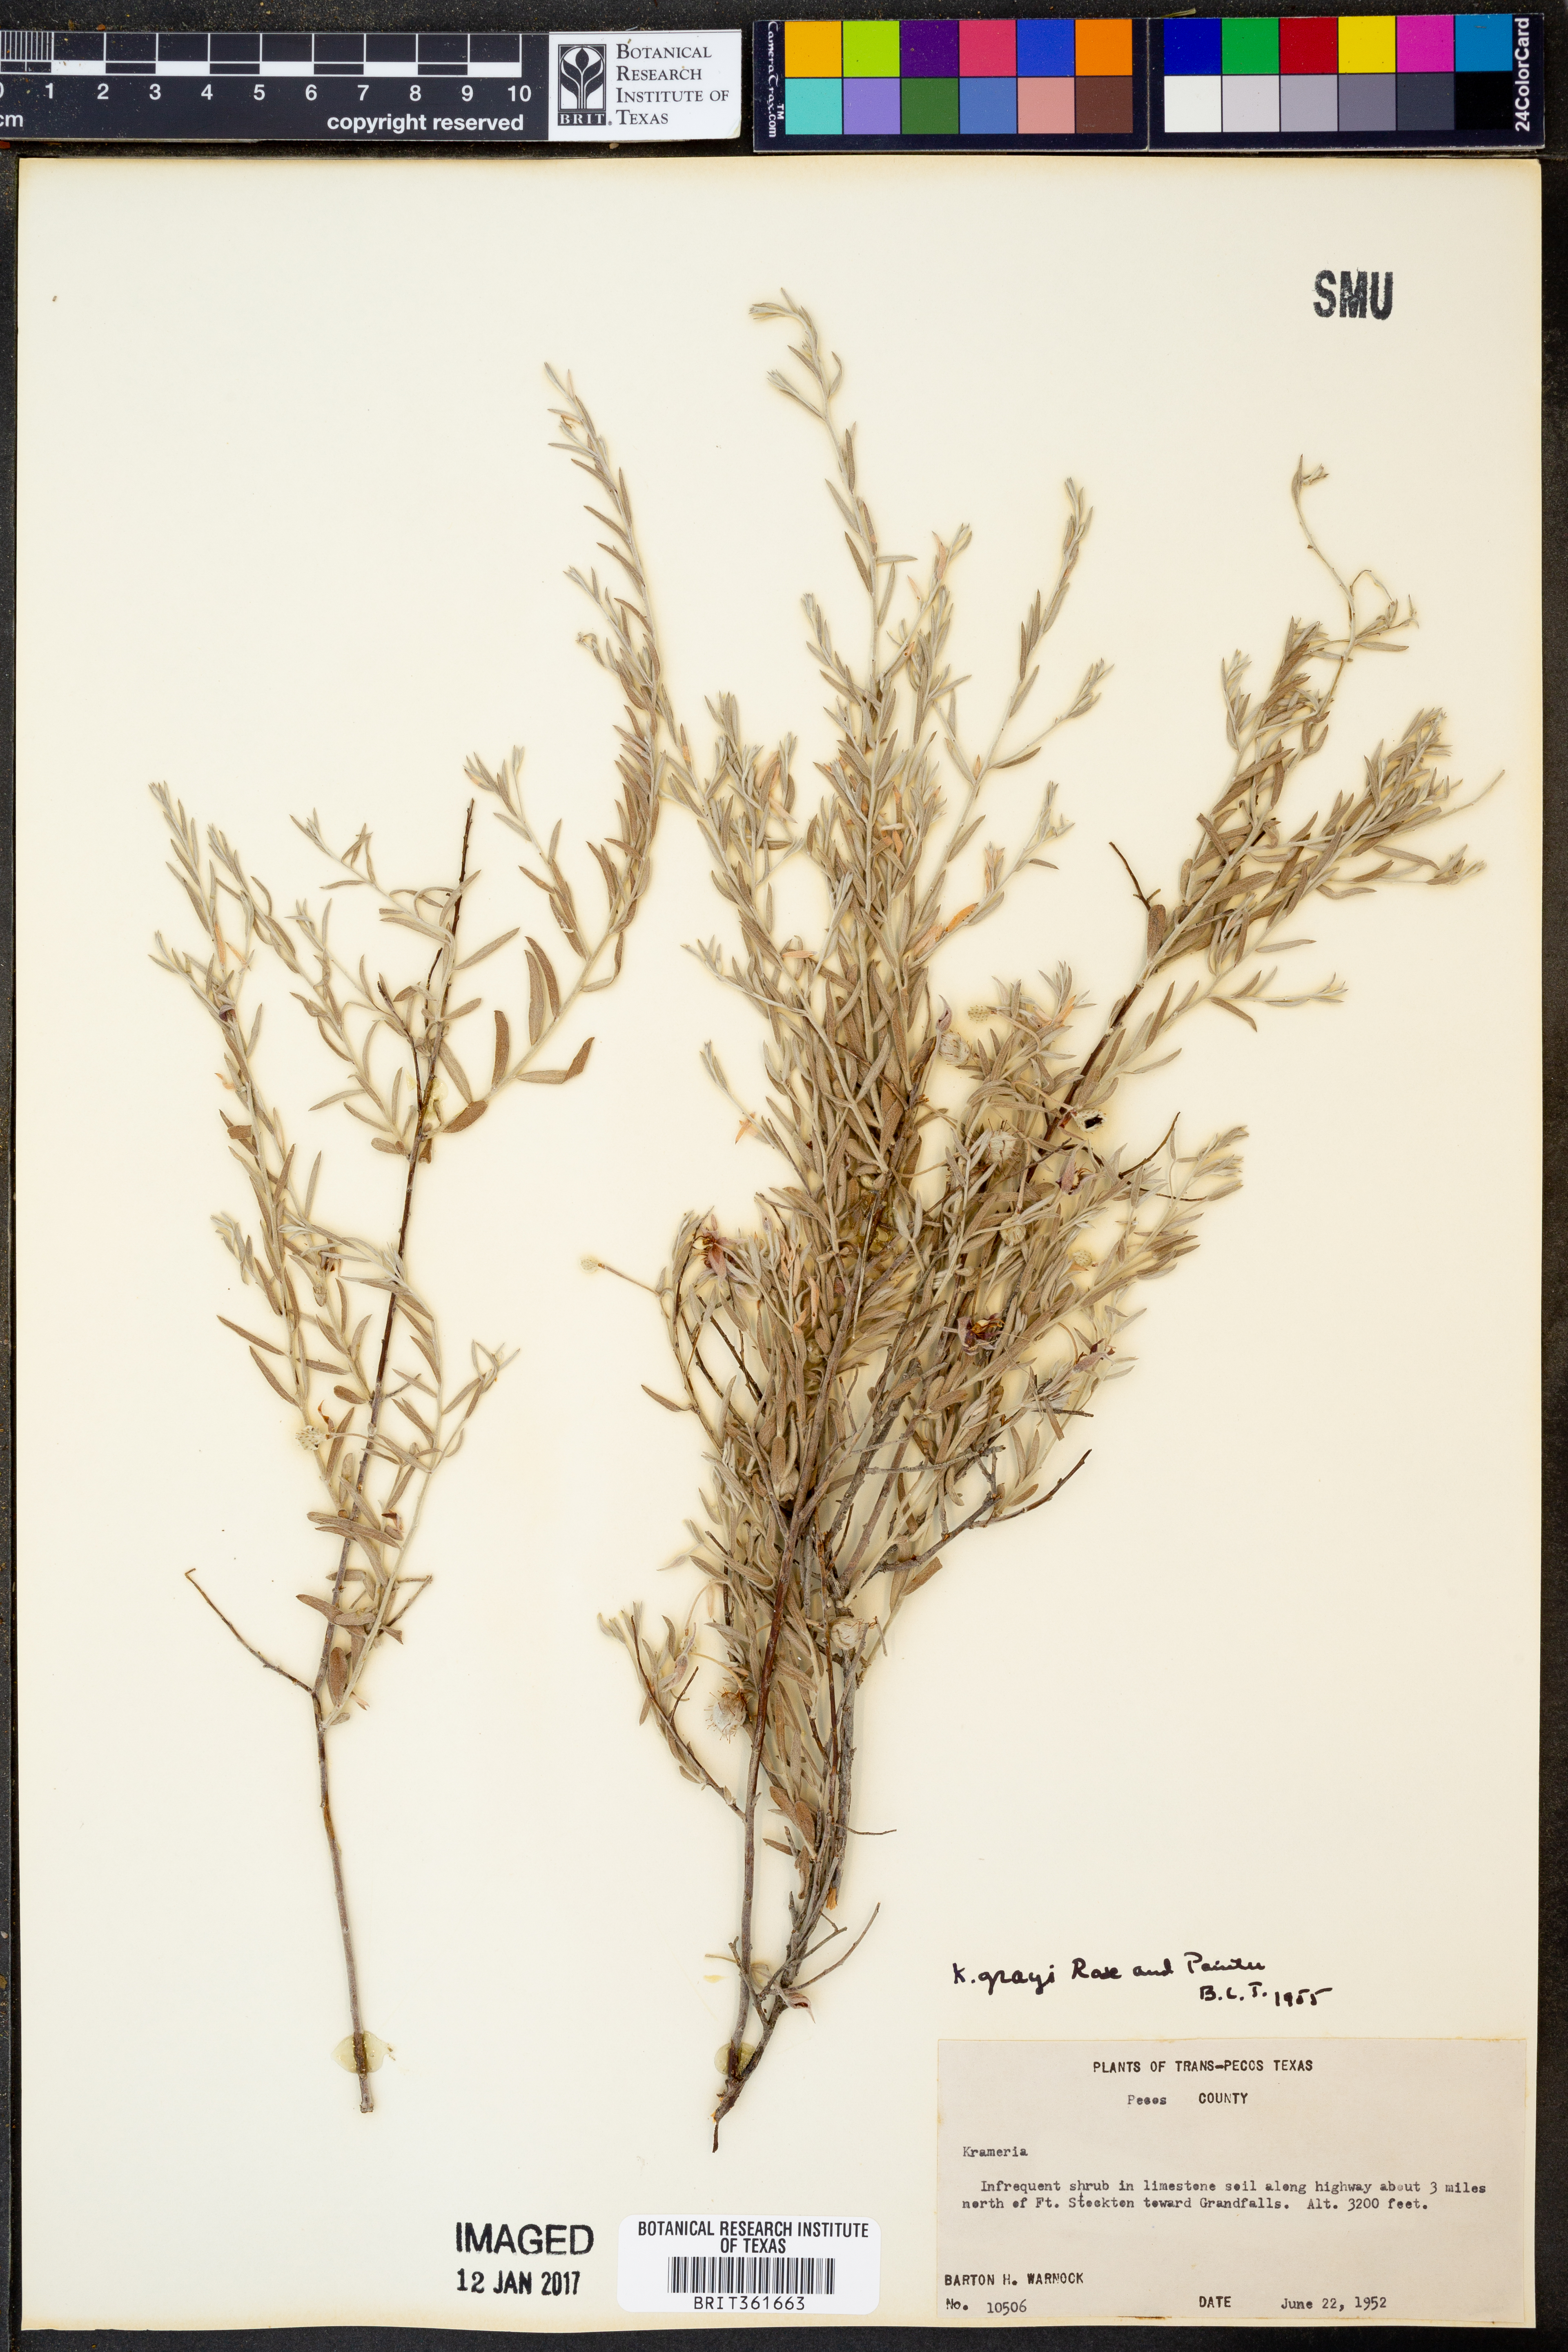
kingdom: Plantae
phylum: Tracheophyta
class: Magnoliopsida
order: Zygophyllales
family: Krameriaceae
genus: Krameria
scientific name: Krameria bicolor
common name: White ratany
